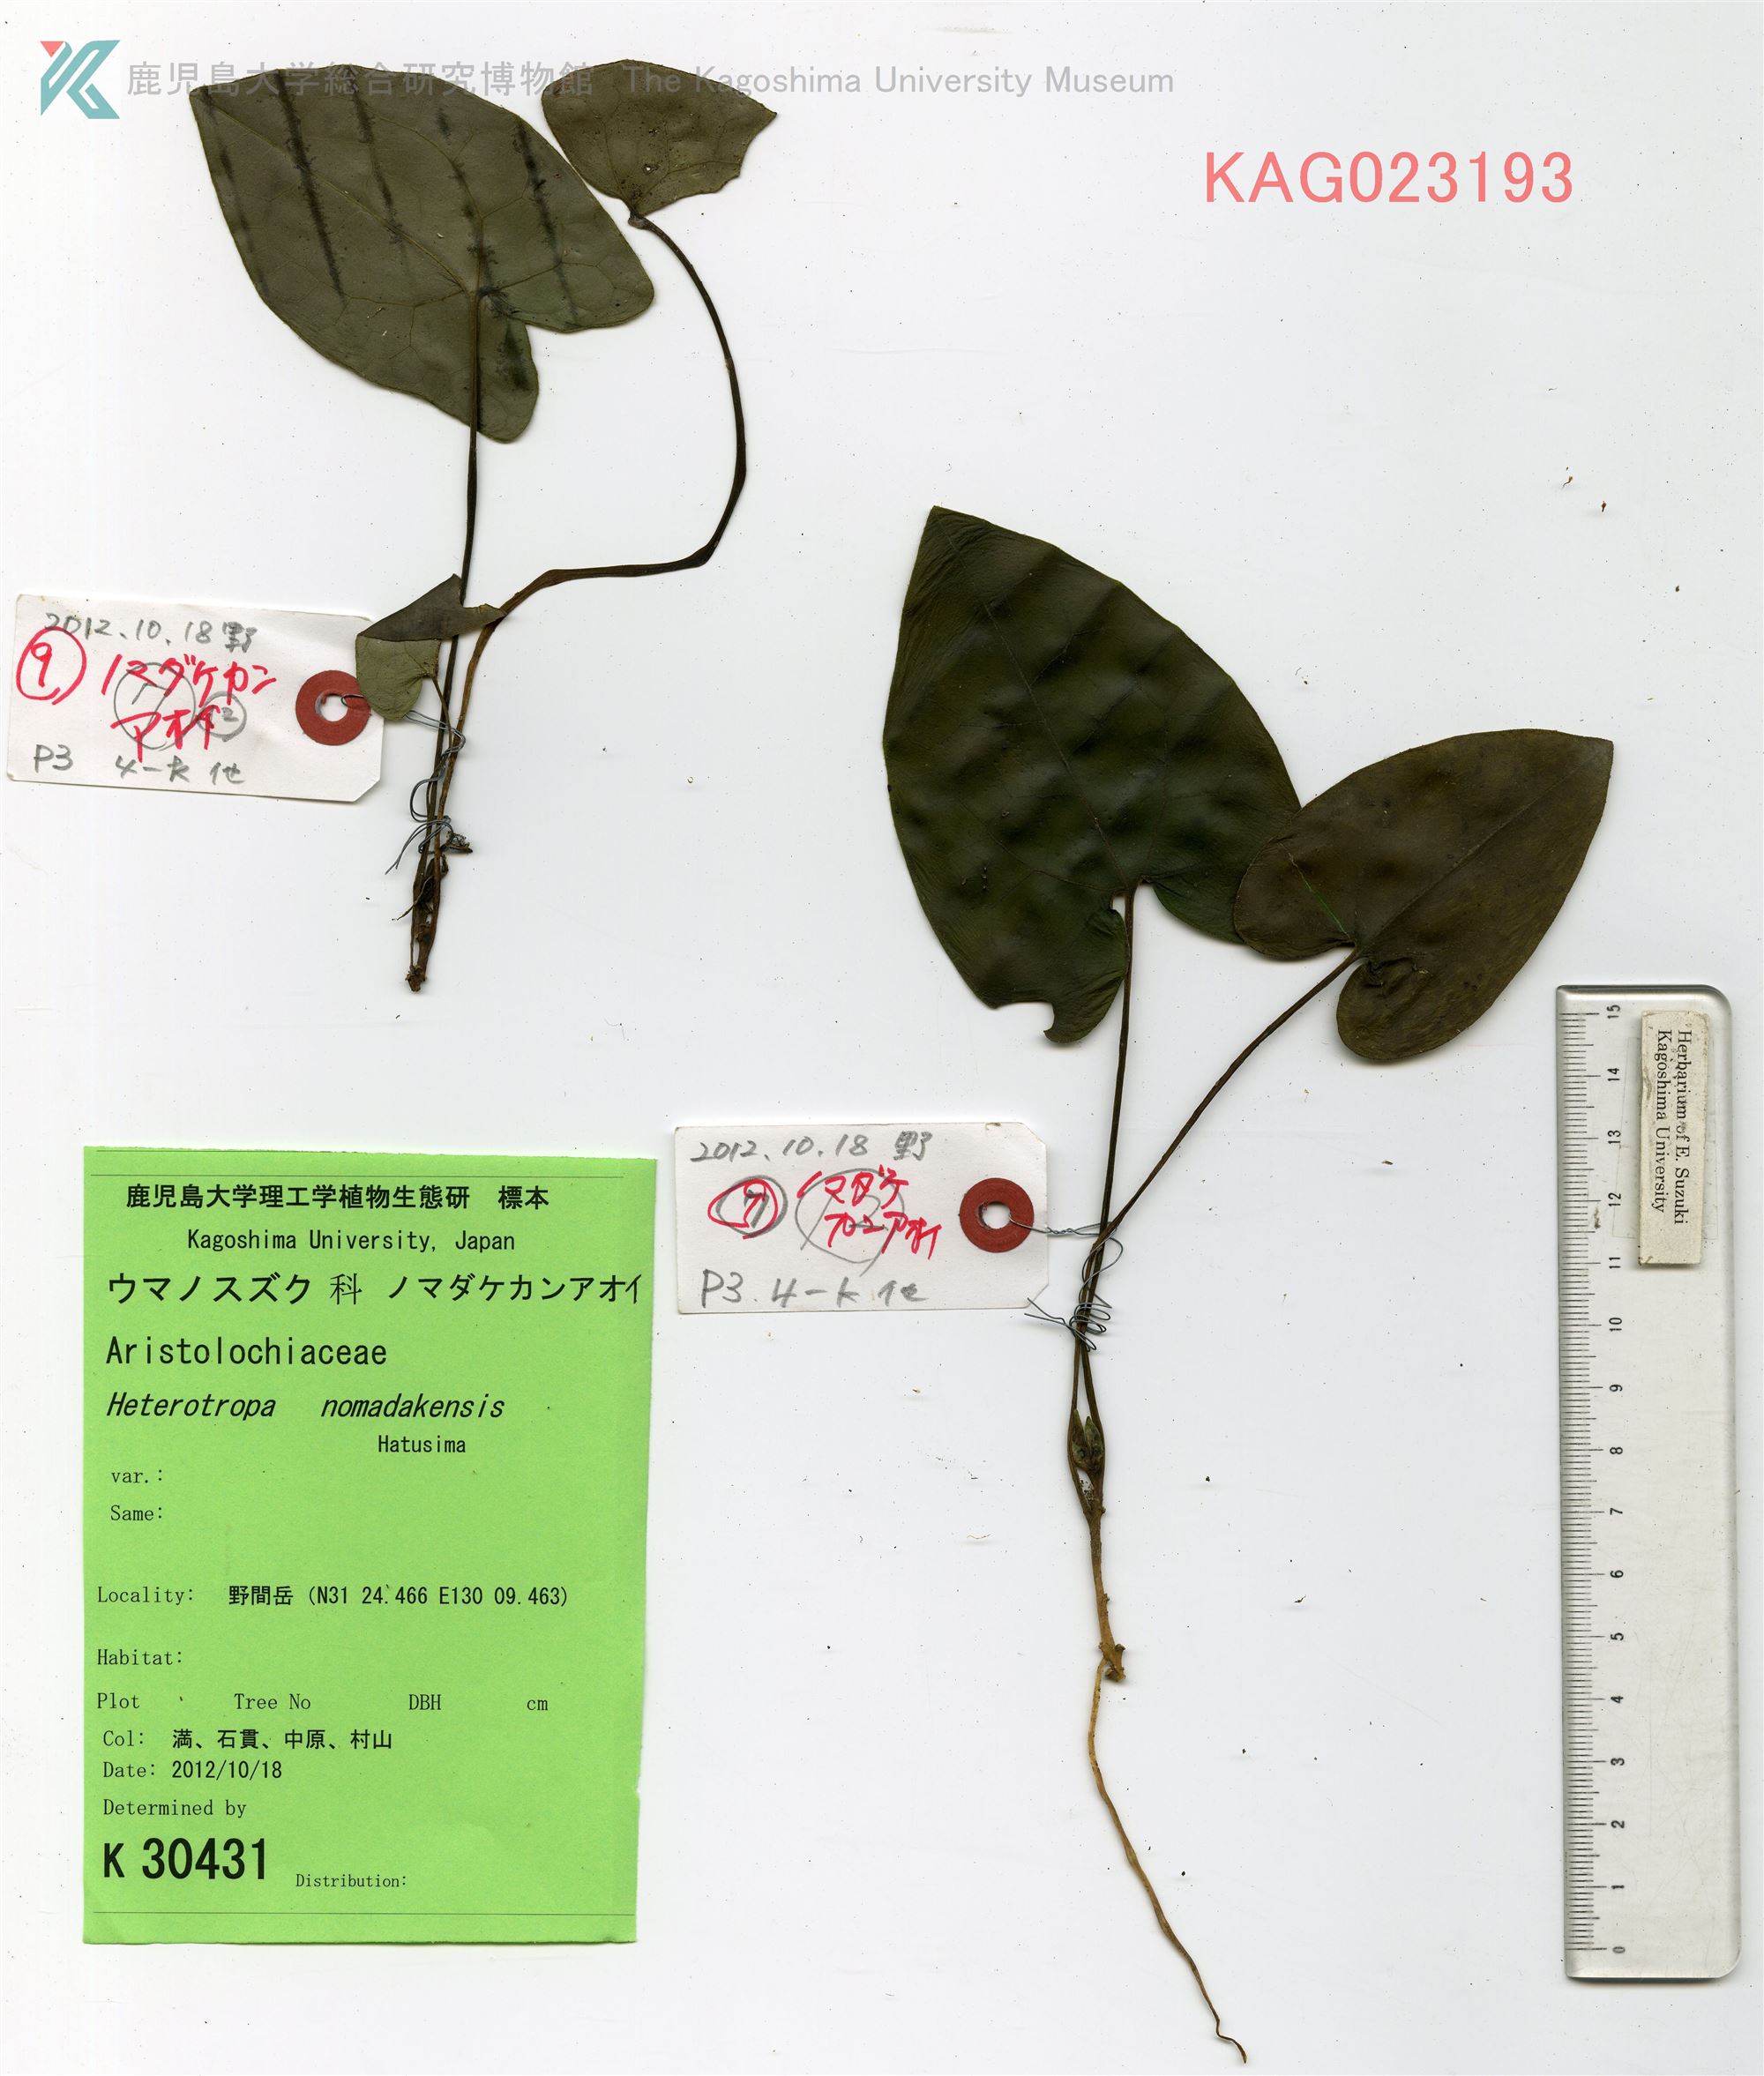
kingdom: Animalia
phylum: Arthropoda
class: Insecta
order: Lepidoptera
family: Erebidae
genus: Heterotropa
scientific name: Heterotropa
